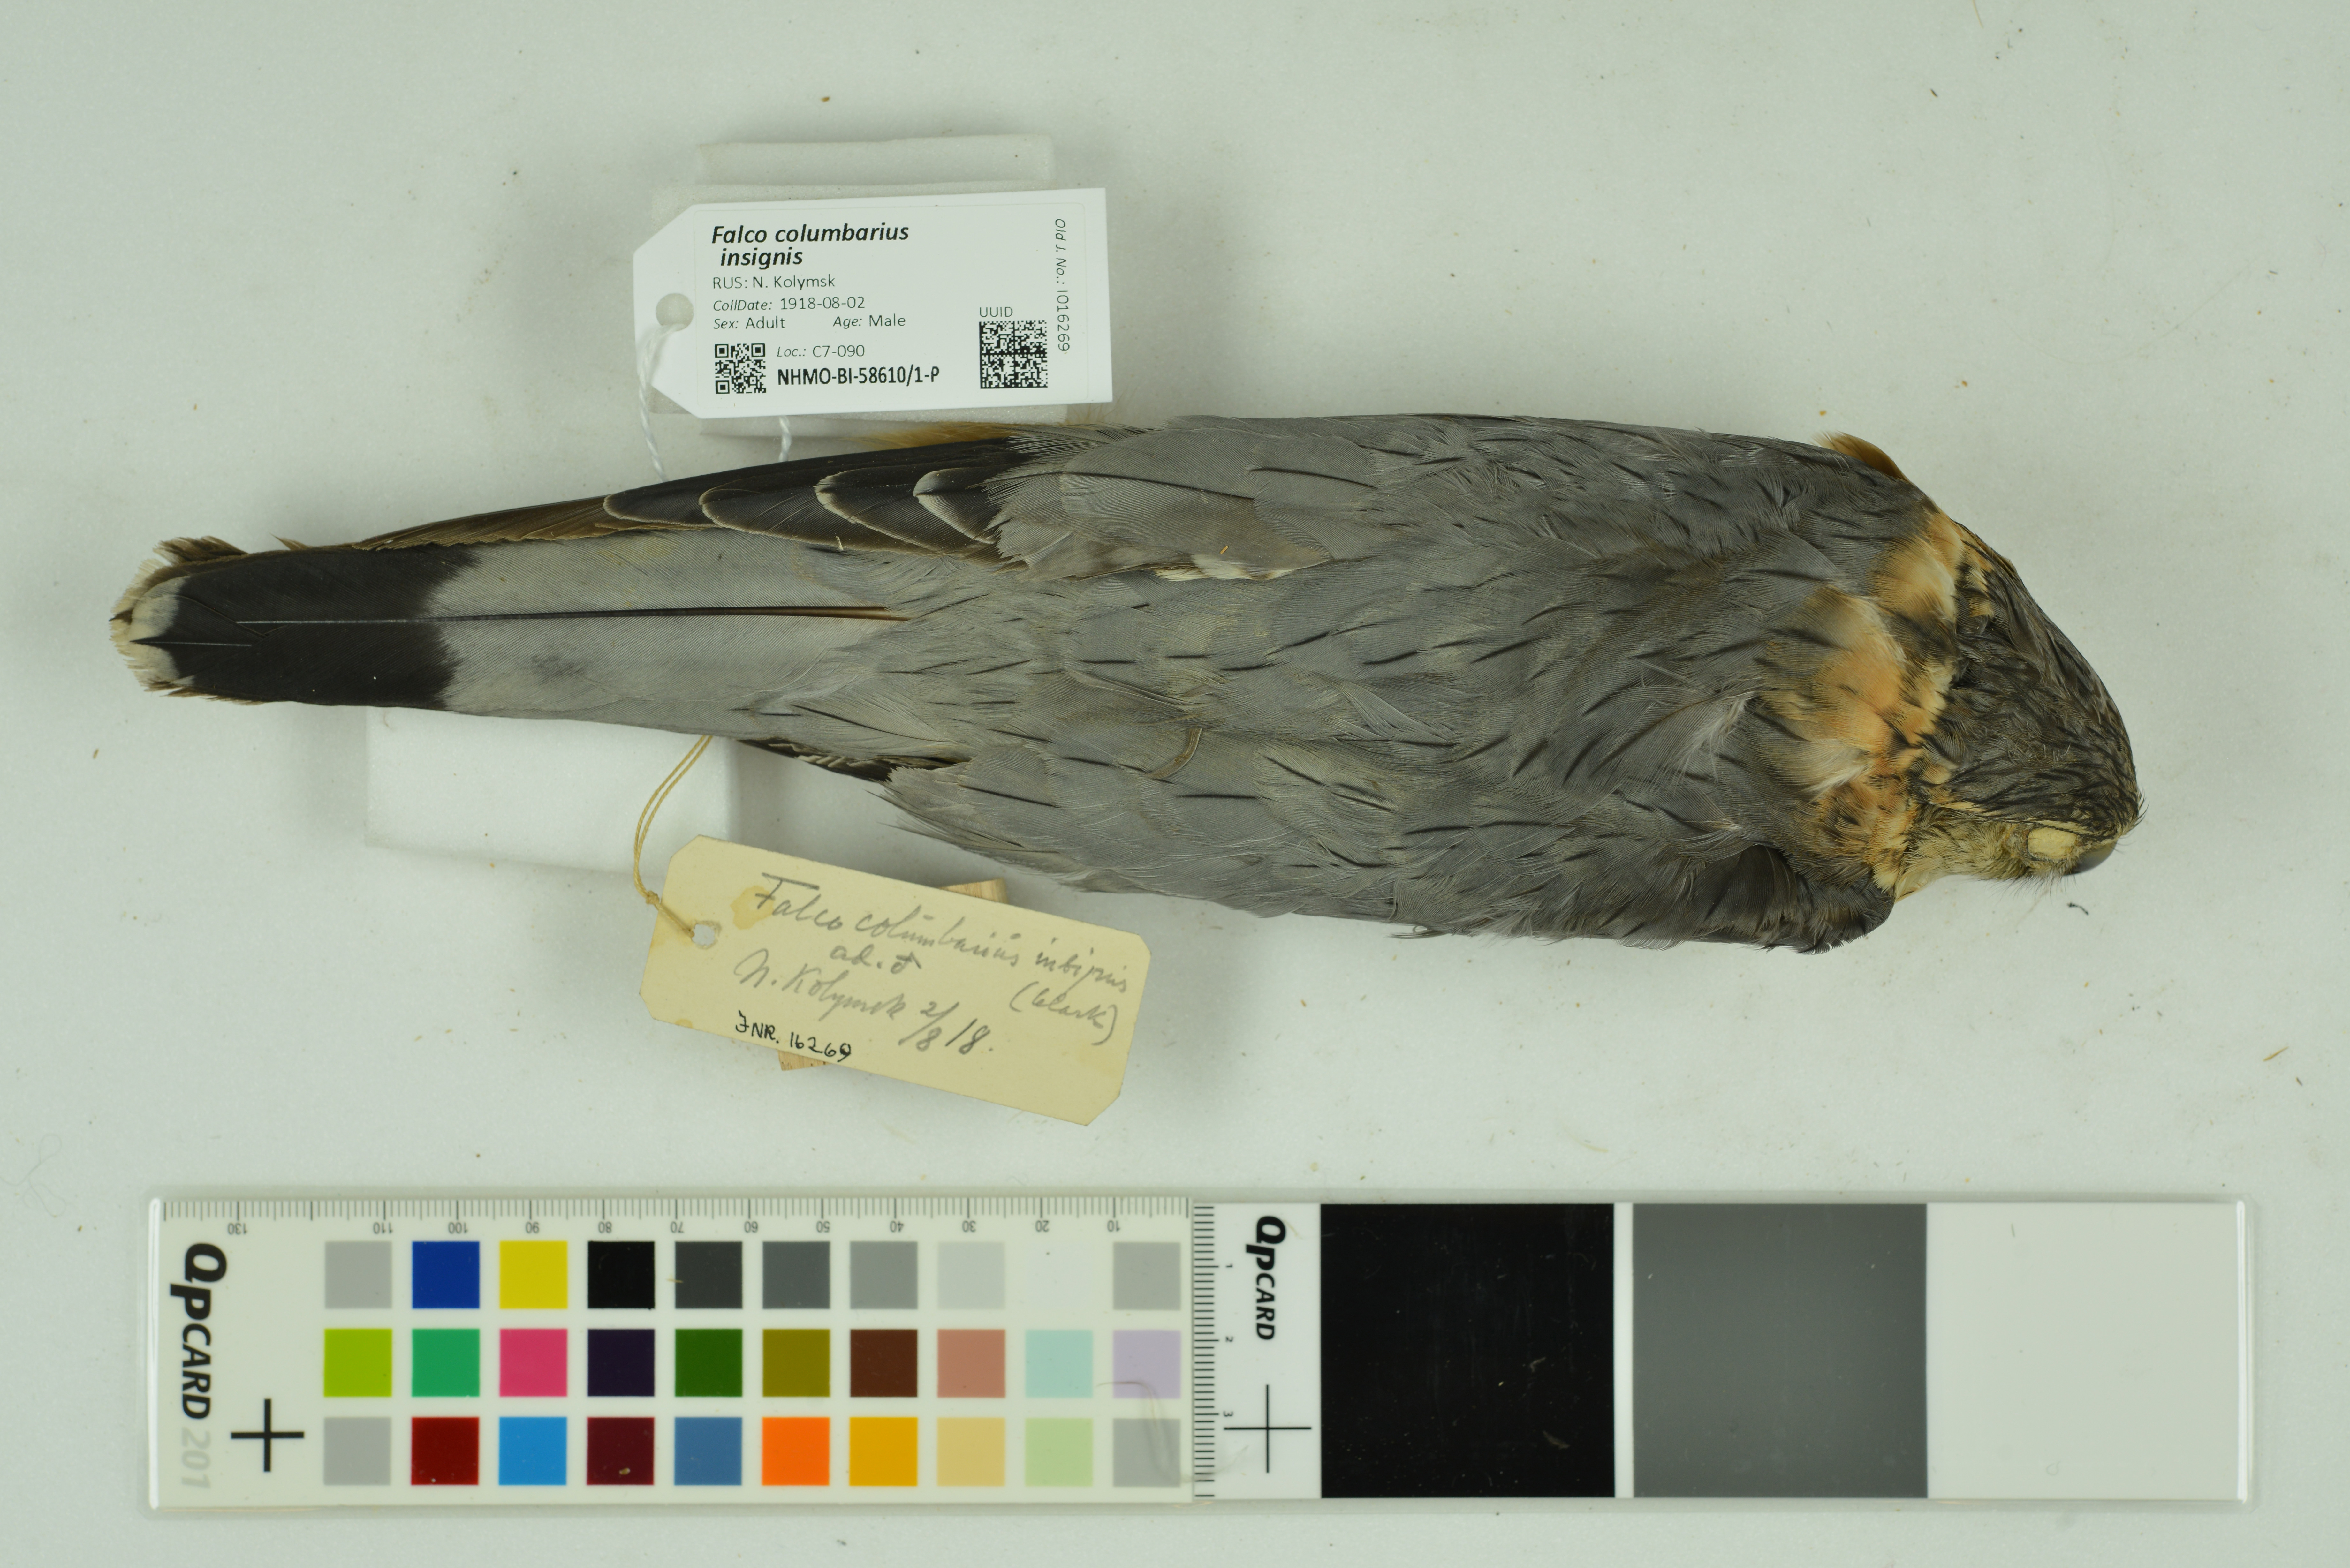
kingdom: Animalia
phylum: Chordata
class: Aves
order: Falconiformes
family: Falconidae
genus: Falco
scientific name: Falco columbarius
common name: Merlin
